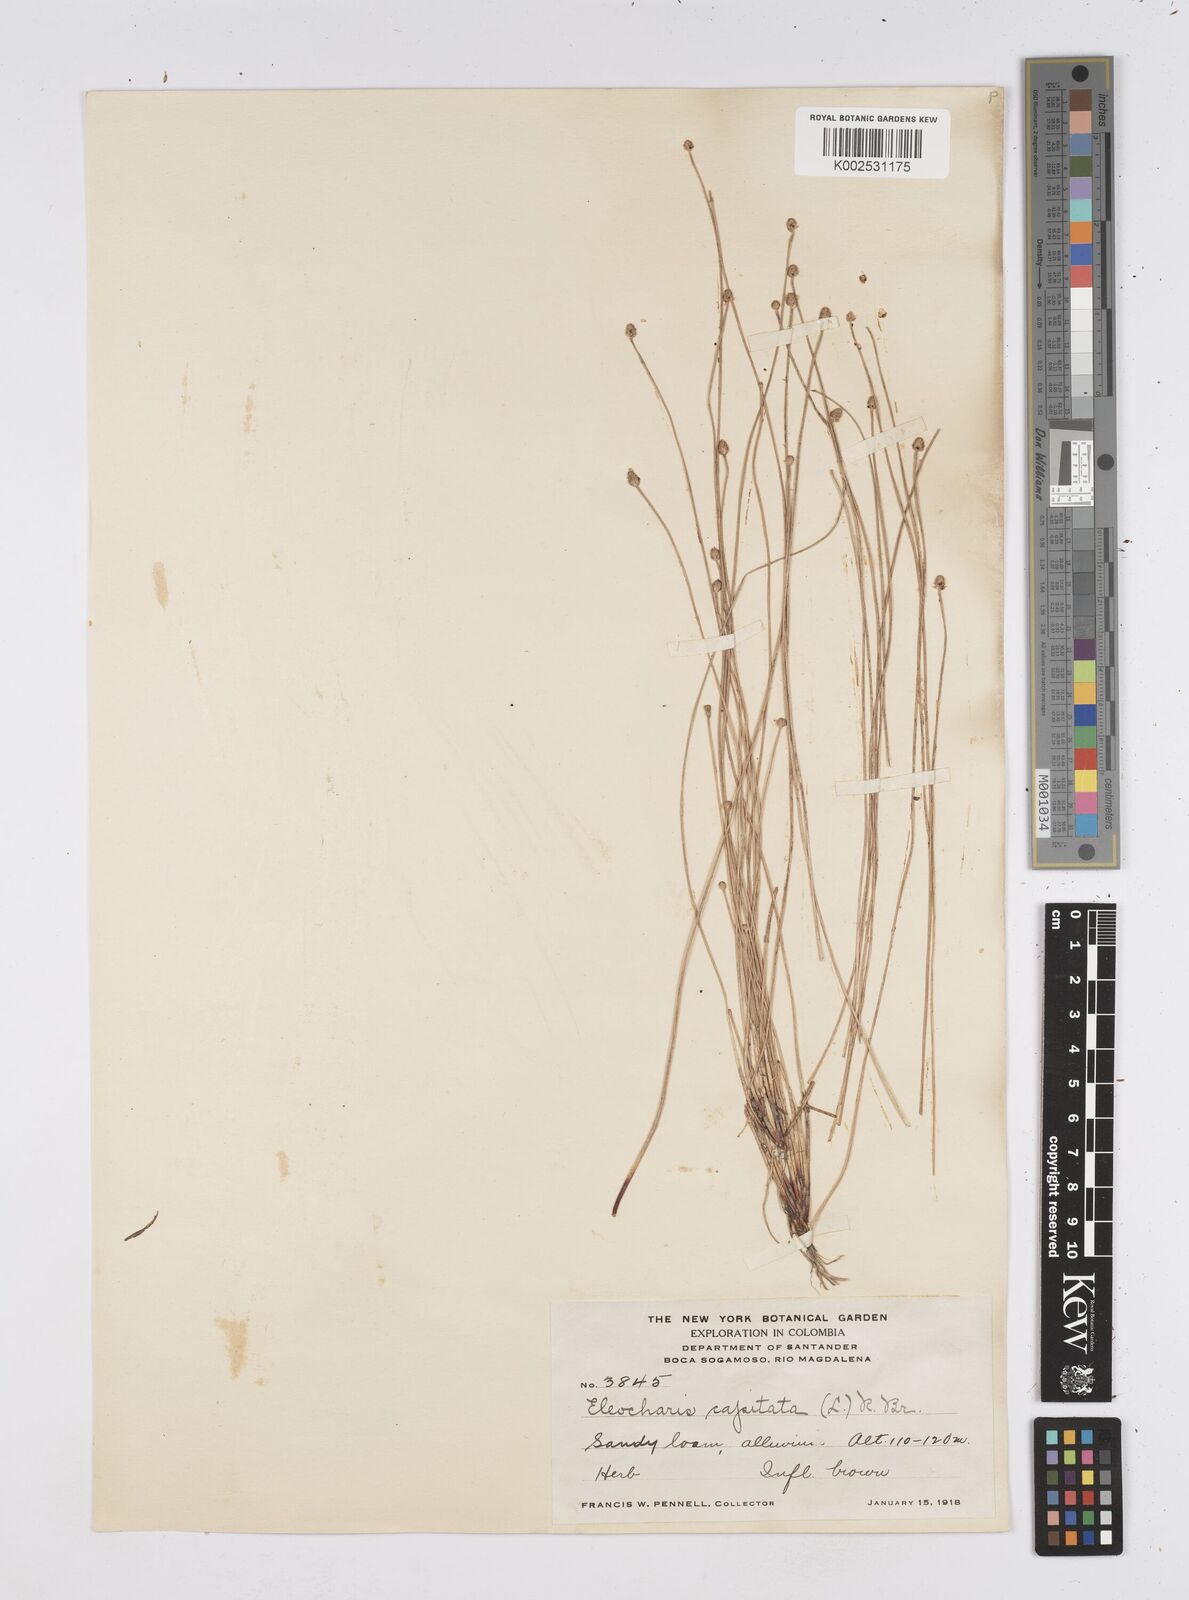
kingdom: Plantae
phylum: Tracheophyta
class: Liliopsida
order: Poales
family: Cyperaceae
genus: Eleocharis
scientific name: Eleocharis geniculata
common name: Canada spikesedge
